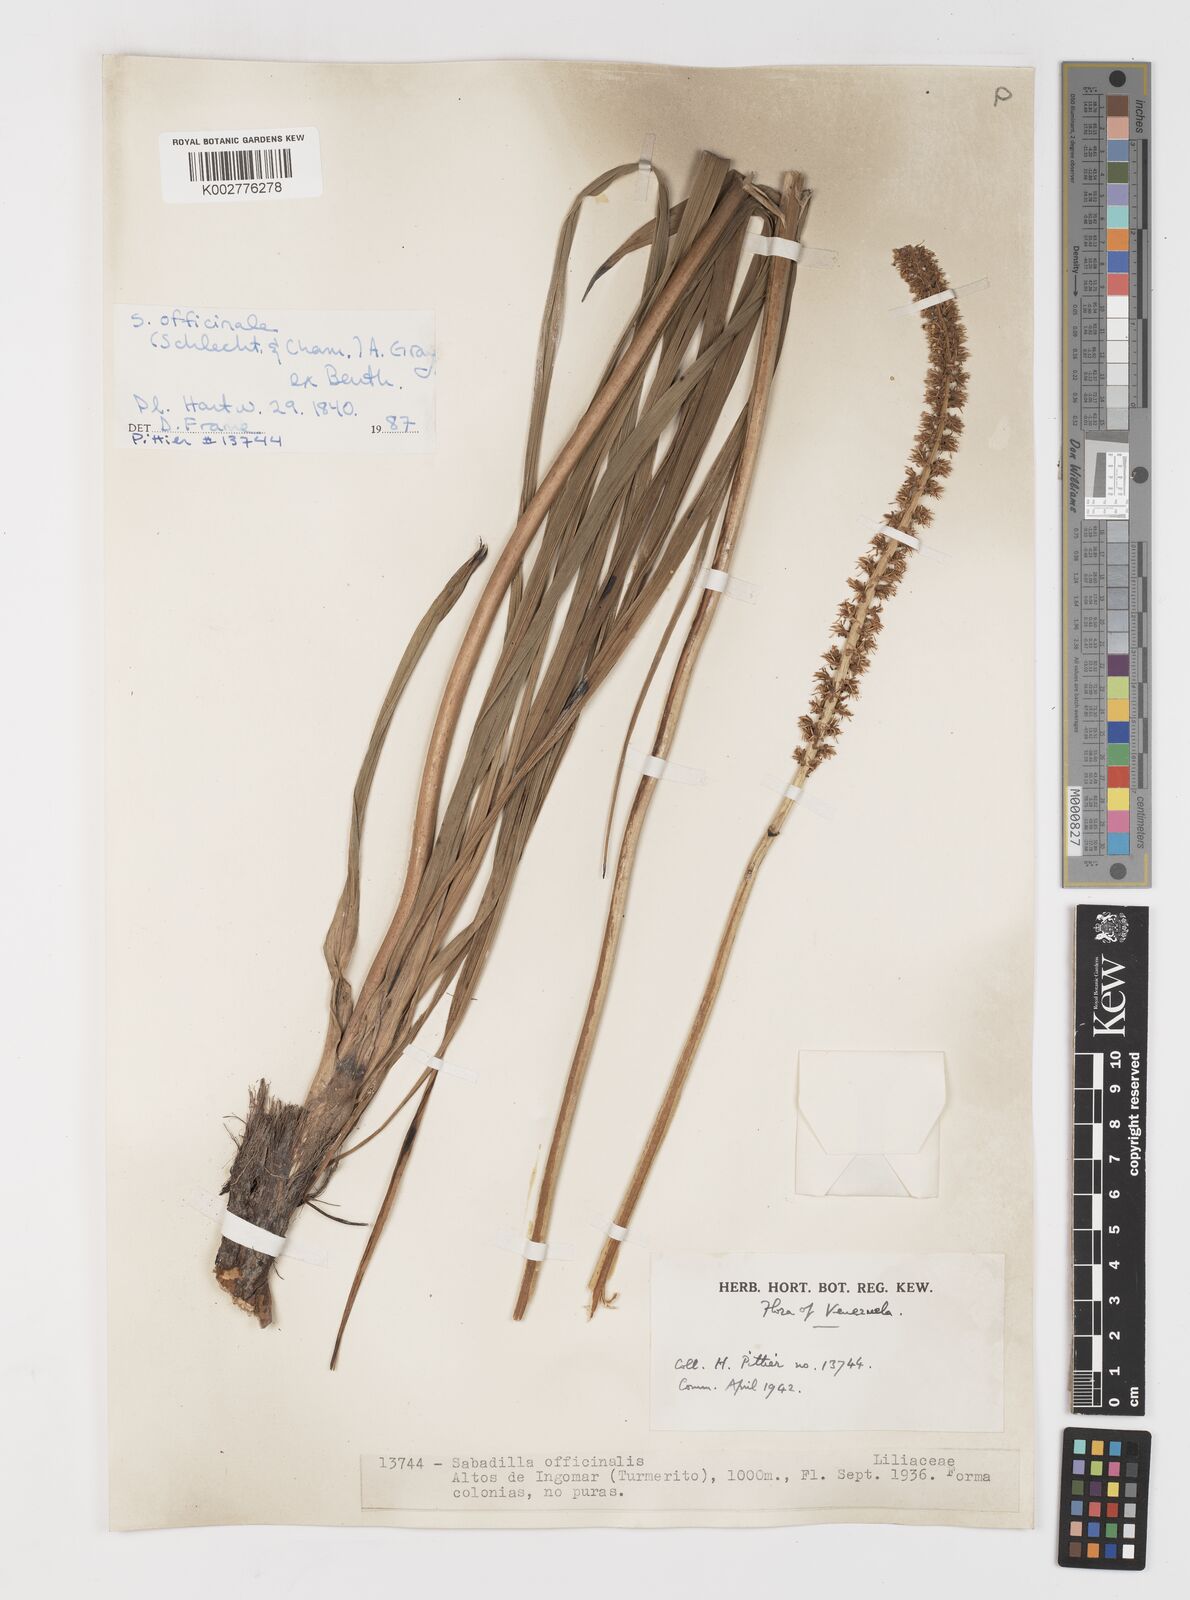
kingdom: Plantae
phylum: Tracheophyta
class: Liliopsida
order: Liliales
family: Melanthiaceae
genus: Schoenocaulon
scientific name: Schoenocaulon officinale
